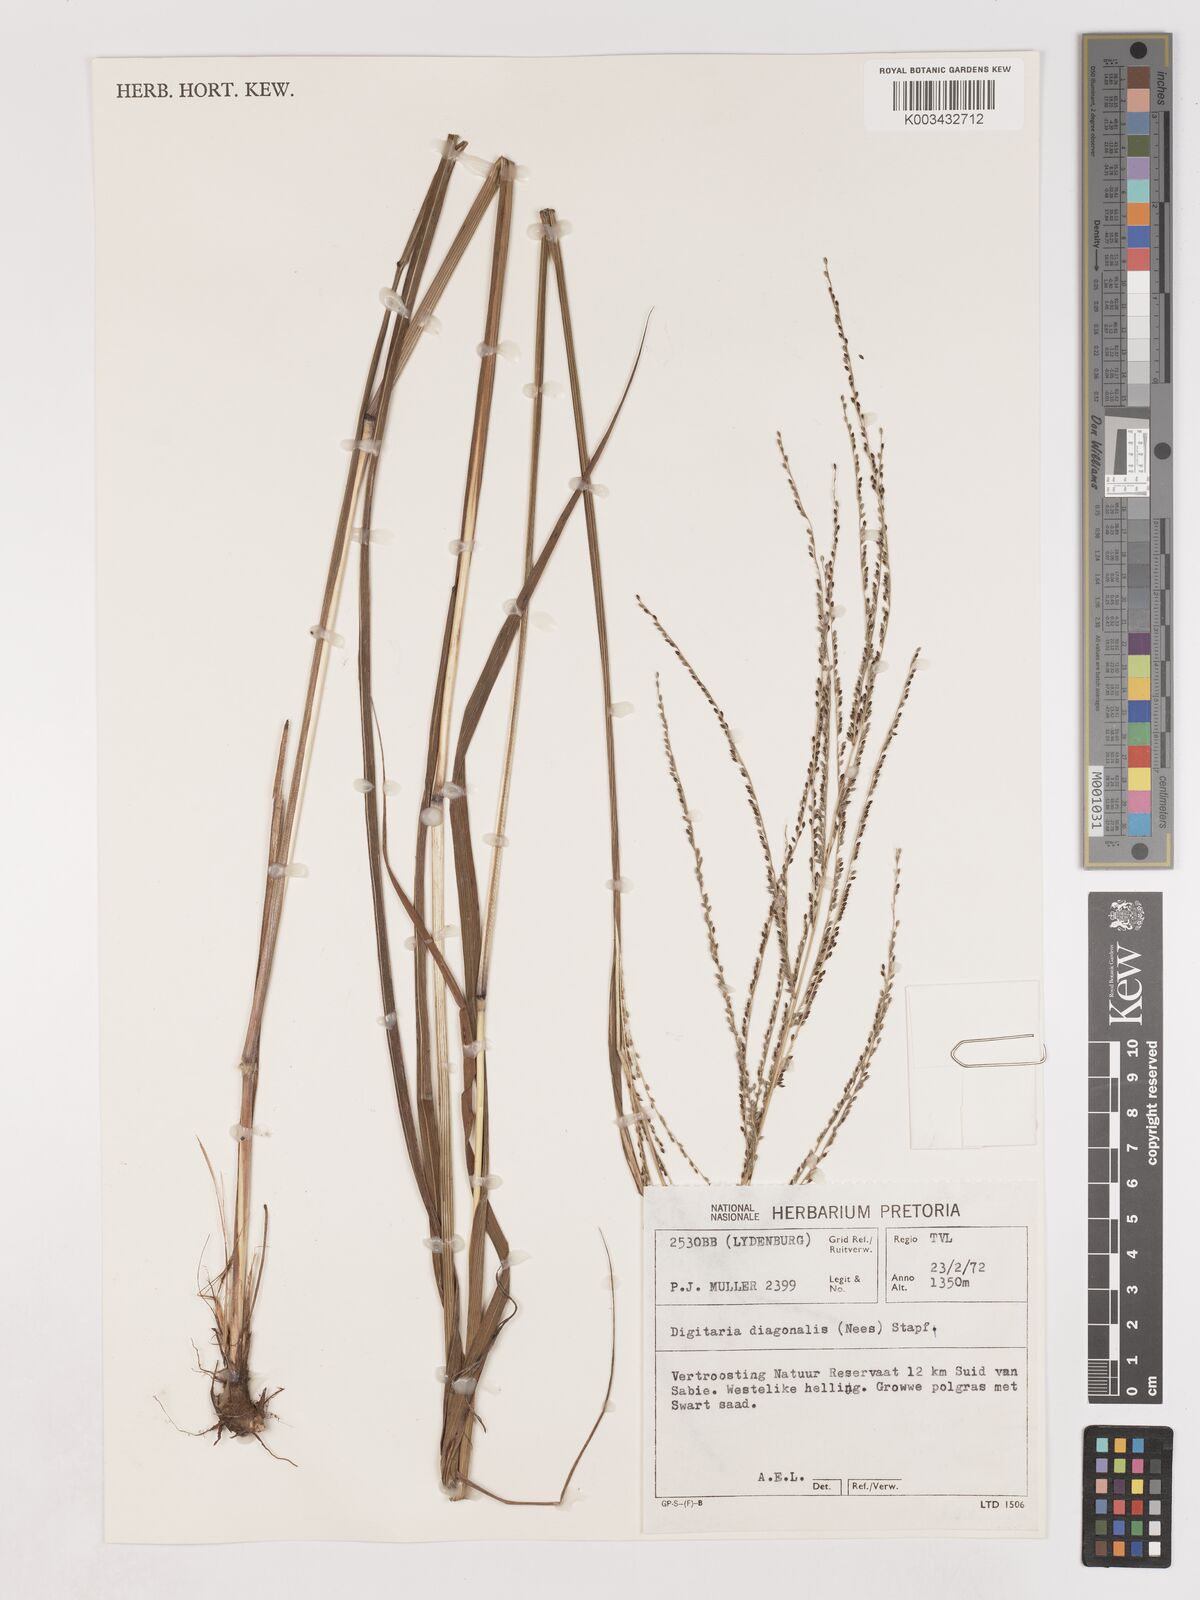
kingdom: Plantae
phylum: Tracheophyta
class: Liliopsida
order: Poales
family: Poaceae
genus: Digitaria
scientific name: Digitaria diagonalis
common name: Brown-seed finger grass
